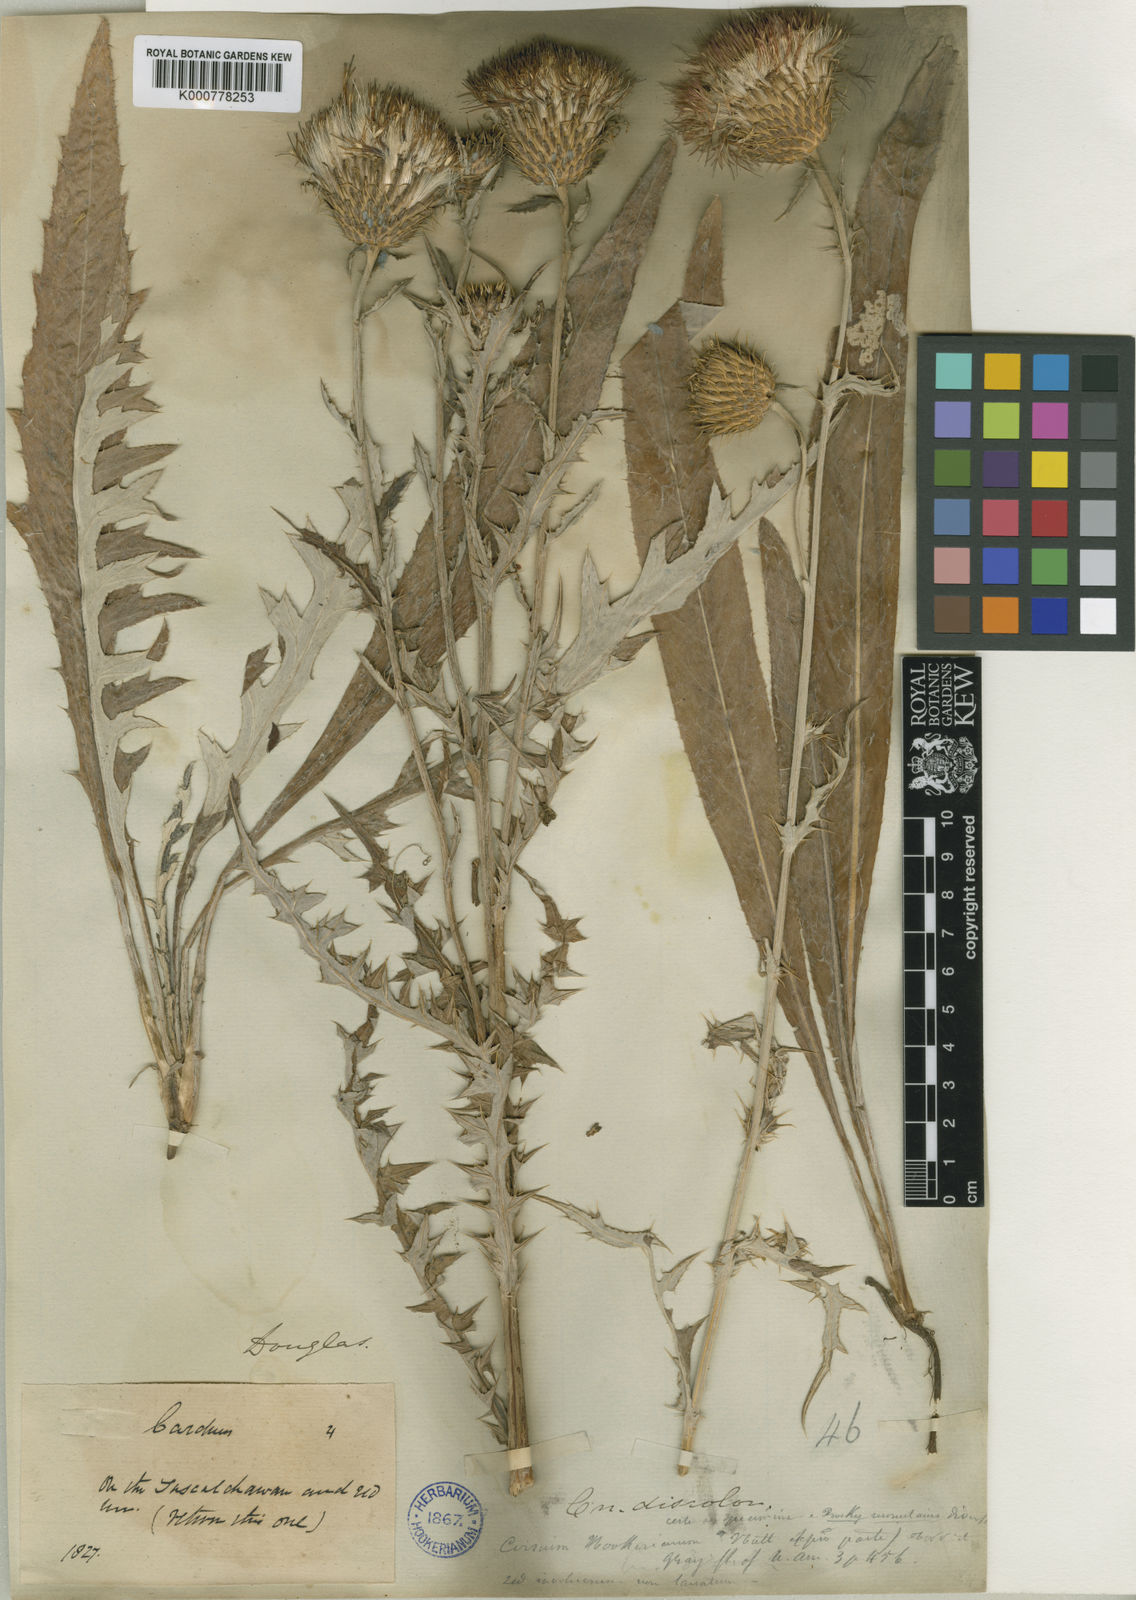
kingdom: Plantae
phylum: Tracheophyta
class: Magnoliopsida
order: Asterales
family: Asteraceae
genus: Cirsium
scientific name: Cirsium
